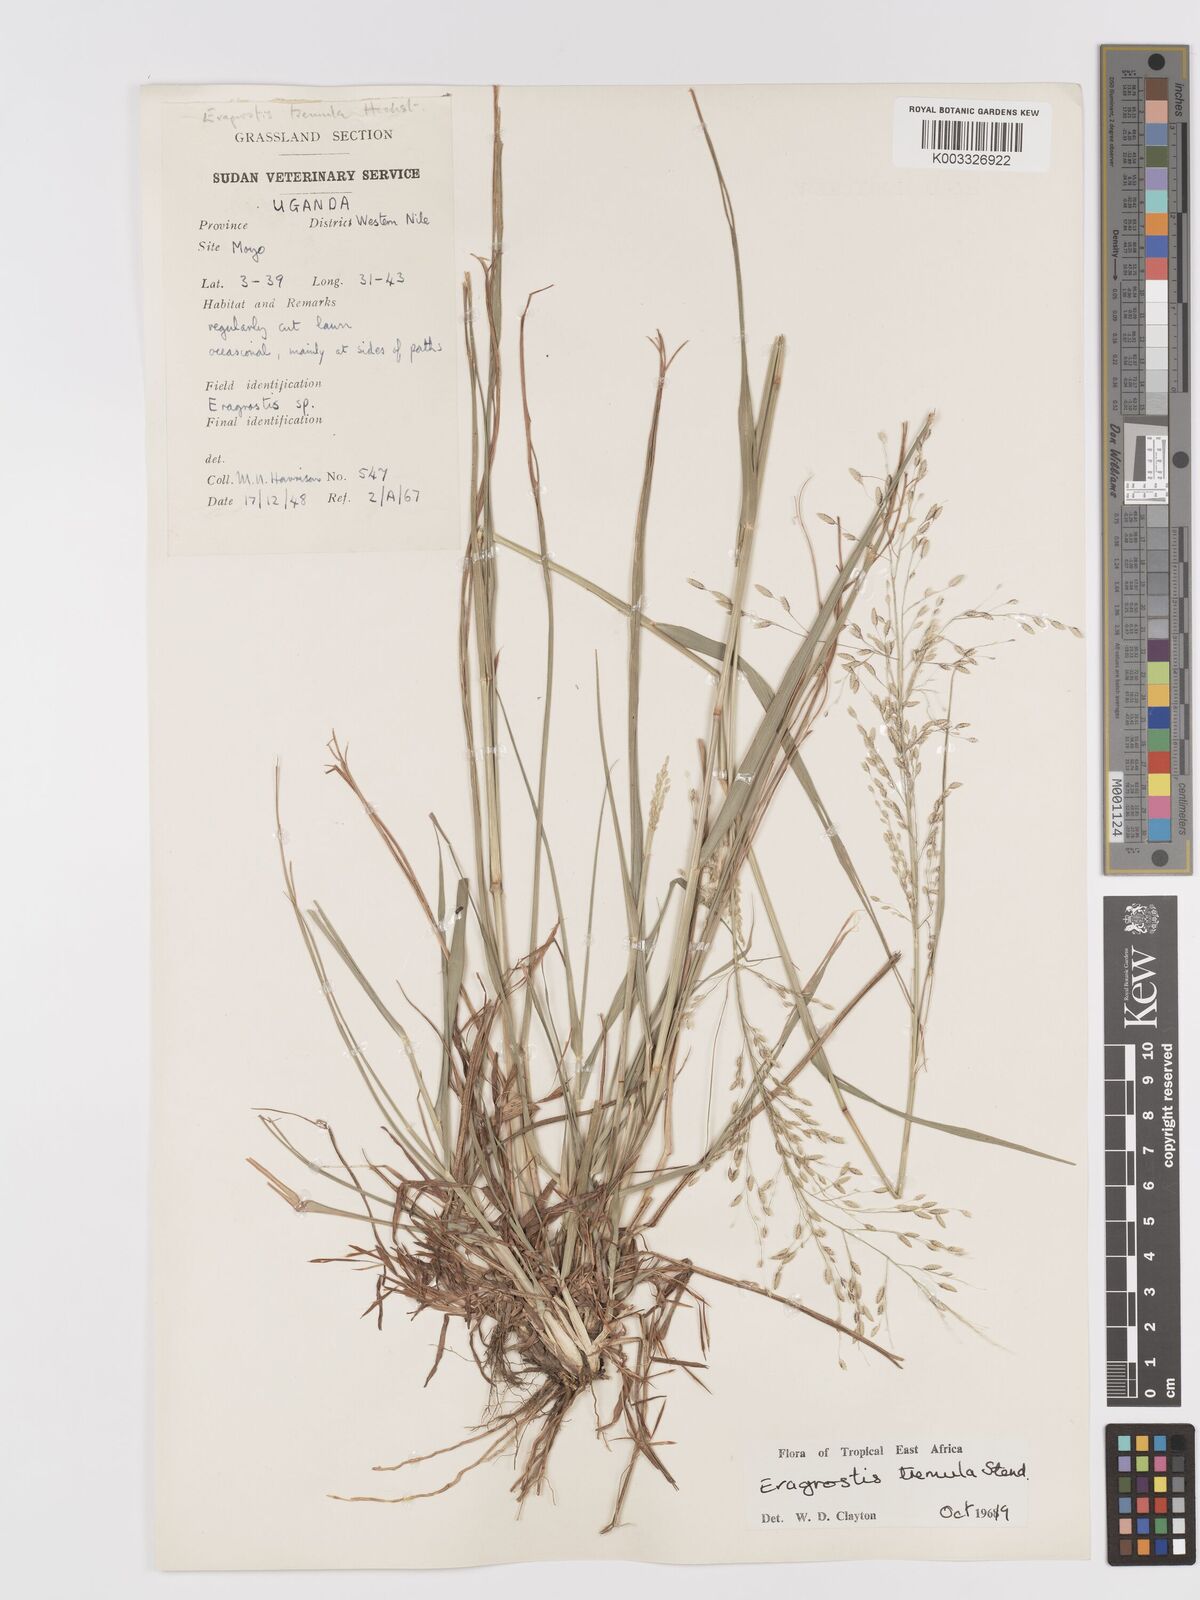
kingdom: Plantae
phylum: Tracheophyta
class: Liliopsida
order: Poales
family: Poaceae
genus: Eragrostis
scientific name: Eragrostis tremula
